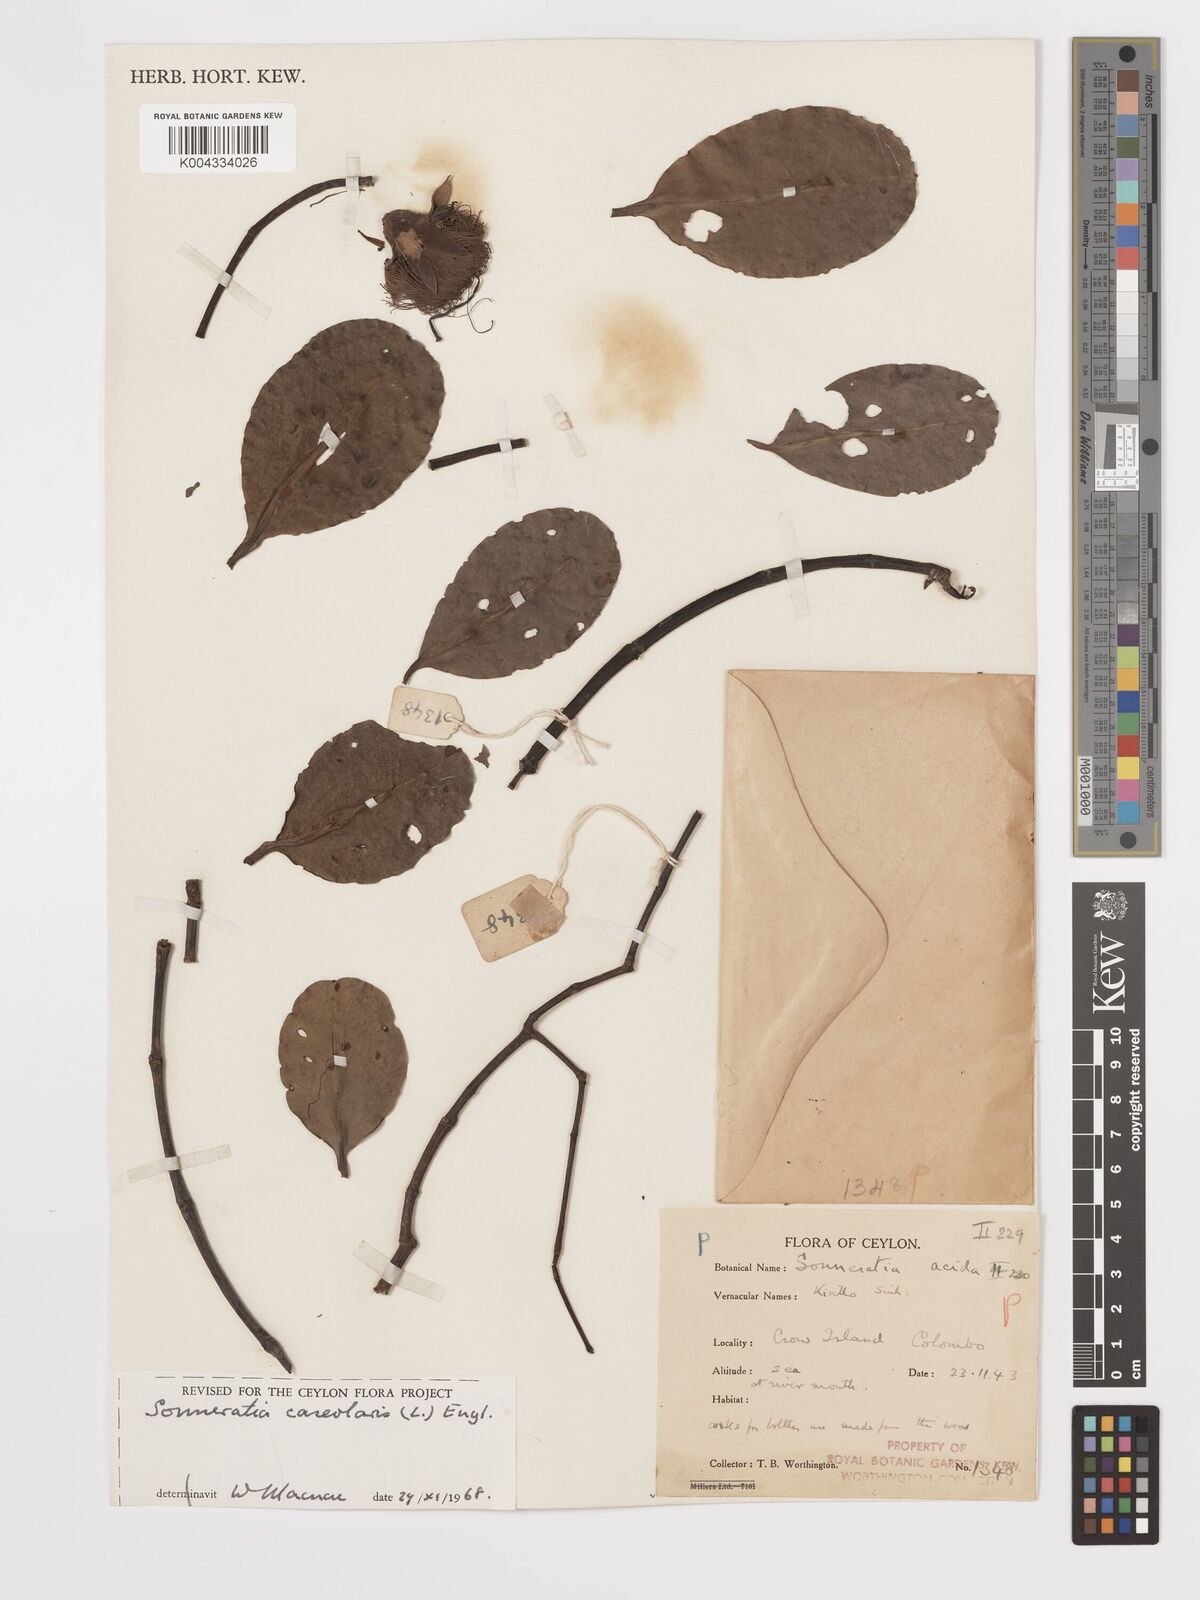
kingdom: Plantae
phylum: Tracheophyta
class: Magnoliopsida
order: Myrtales
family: Lythraceae
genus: Sonneratia
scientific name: Sonneratia caseolaris
